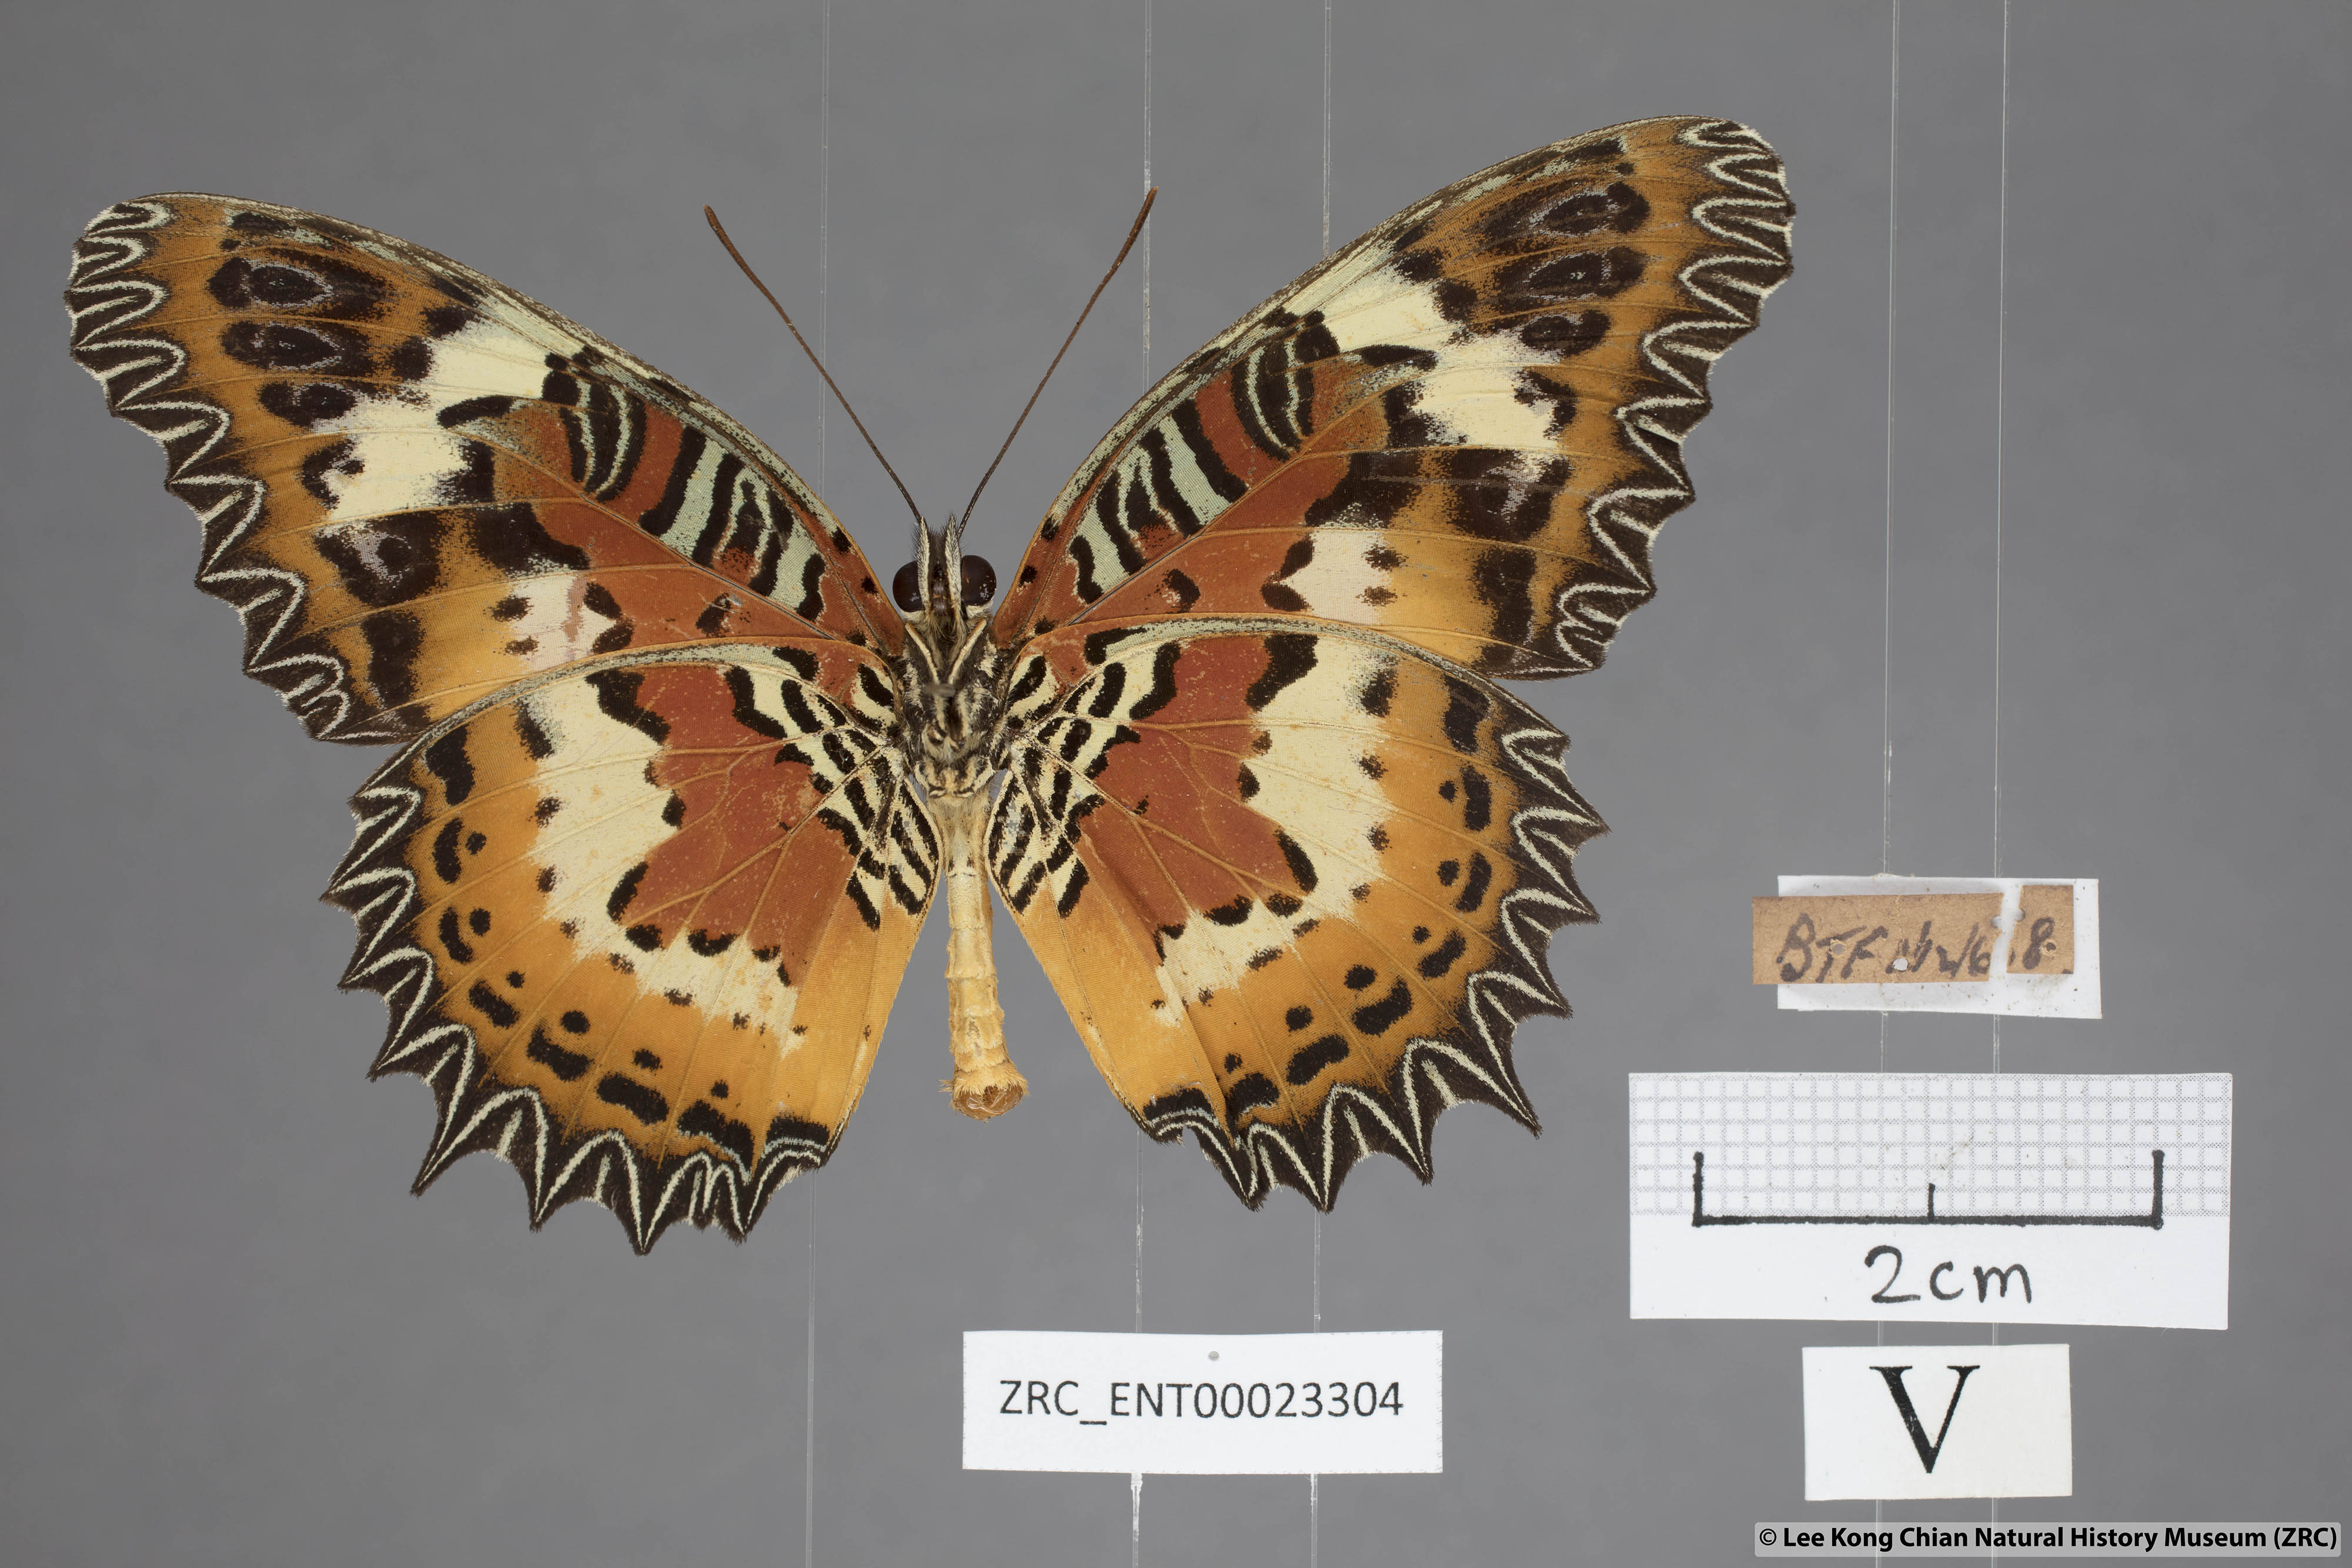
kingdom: Animalia
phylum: Arthropoda
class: Insecta
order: Lepidoptera
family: Nymphalidae
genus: Cethosia
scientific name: Cethosia hypsea
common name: Malayan lacewing butterfly
